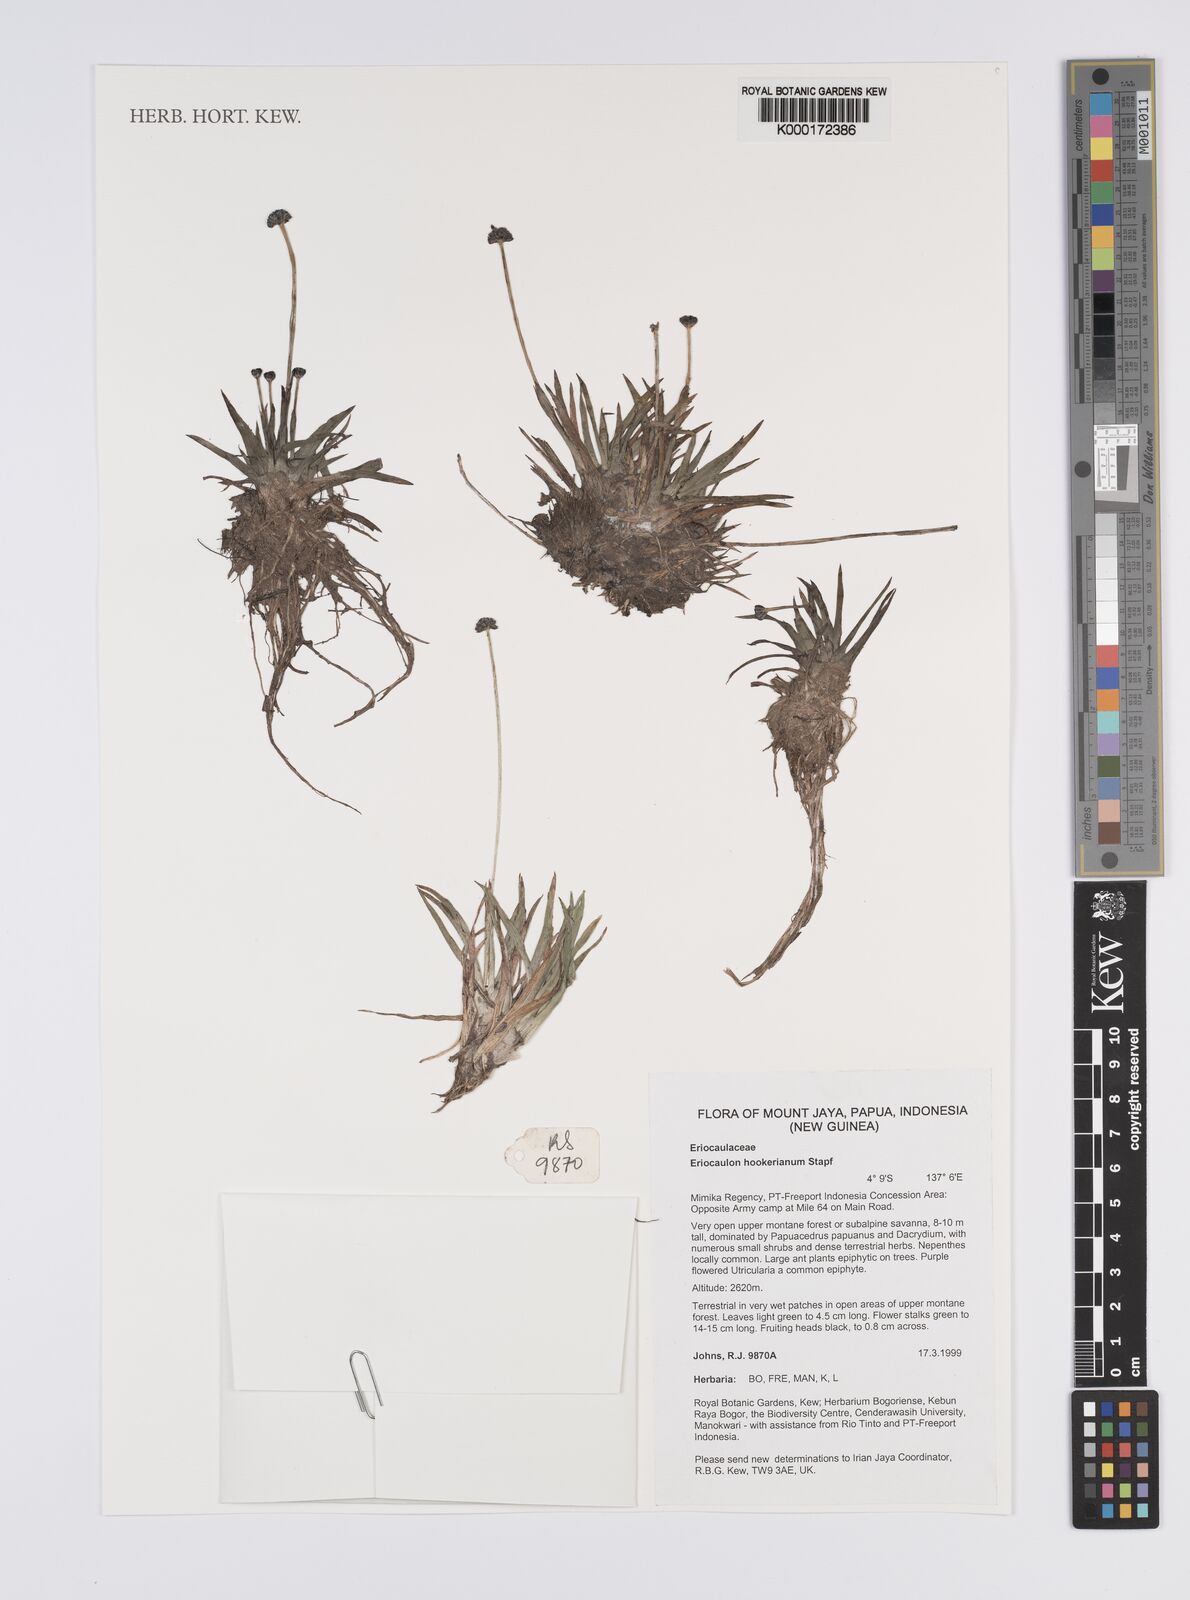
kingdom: Plantae
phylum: Tracheophyta
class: Liliopsida
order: Poales
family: Eriocaulaceae
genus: Eriocaulon
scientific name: Eriocaulon hookerianum
